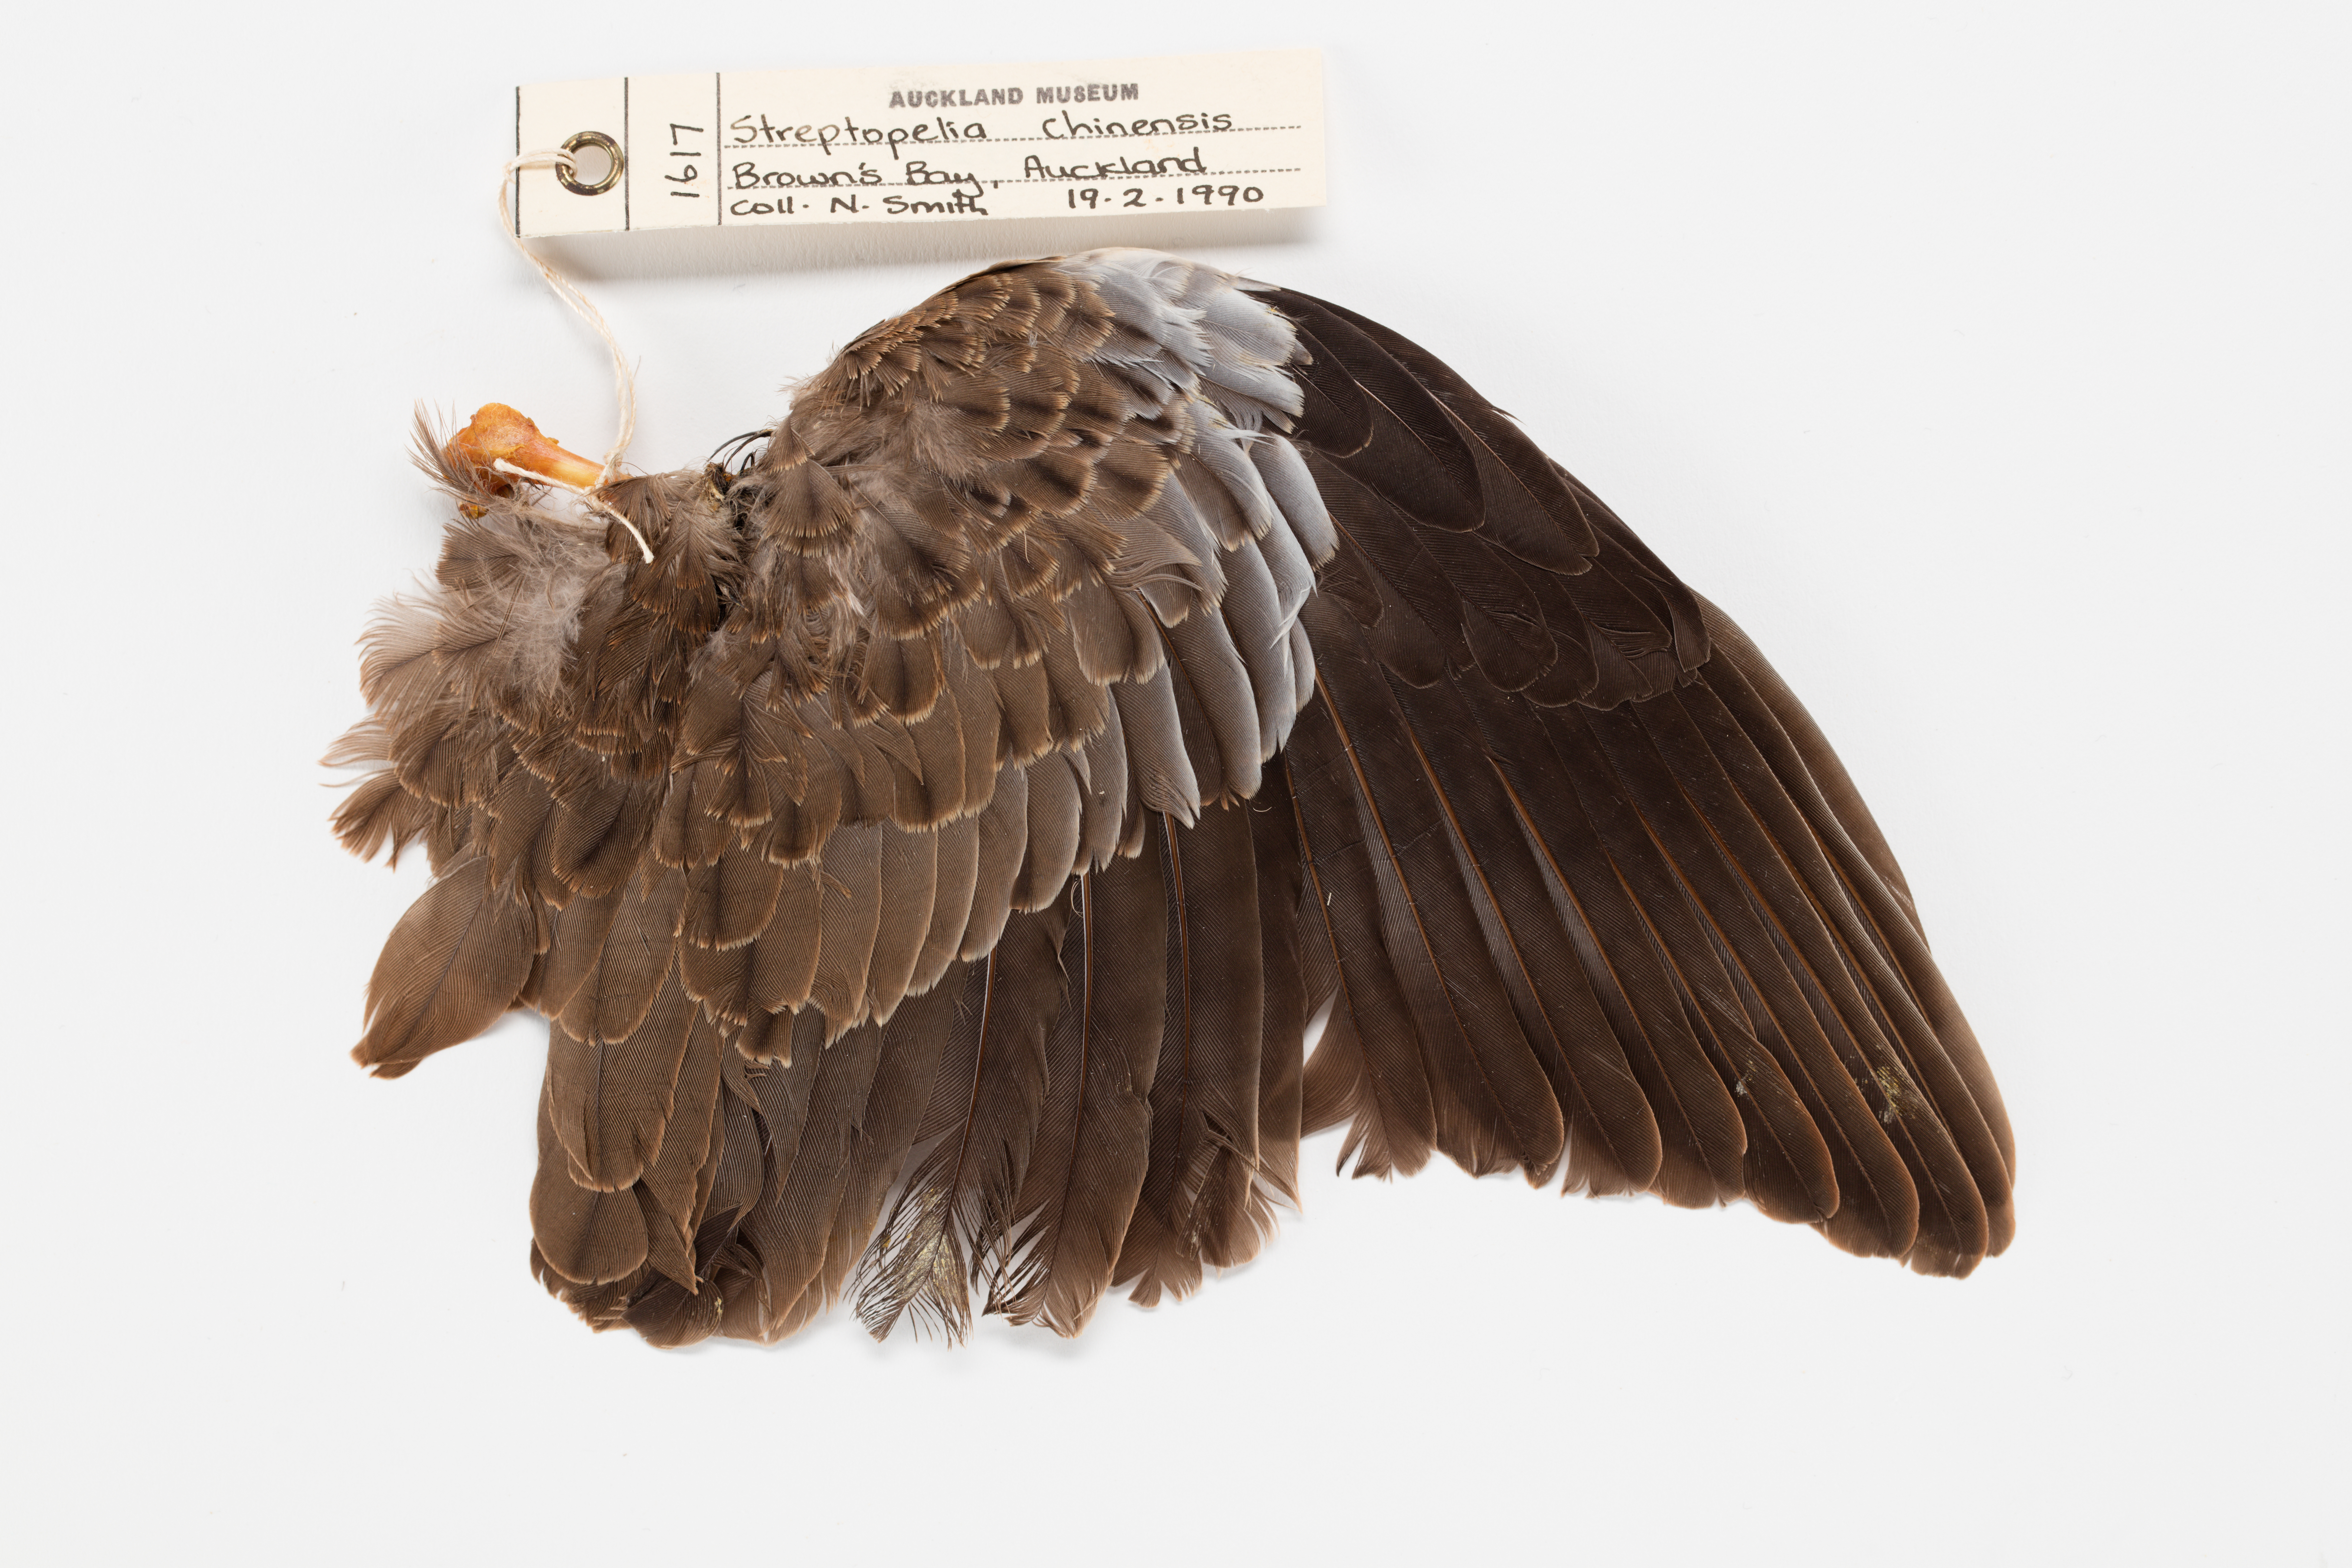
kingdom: Animalia
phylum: Chordata
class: Aves
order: Columbiformes
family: Columbidae
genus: Spilopelia
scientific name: Spilopelia chinensis
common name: Spotted dove
